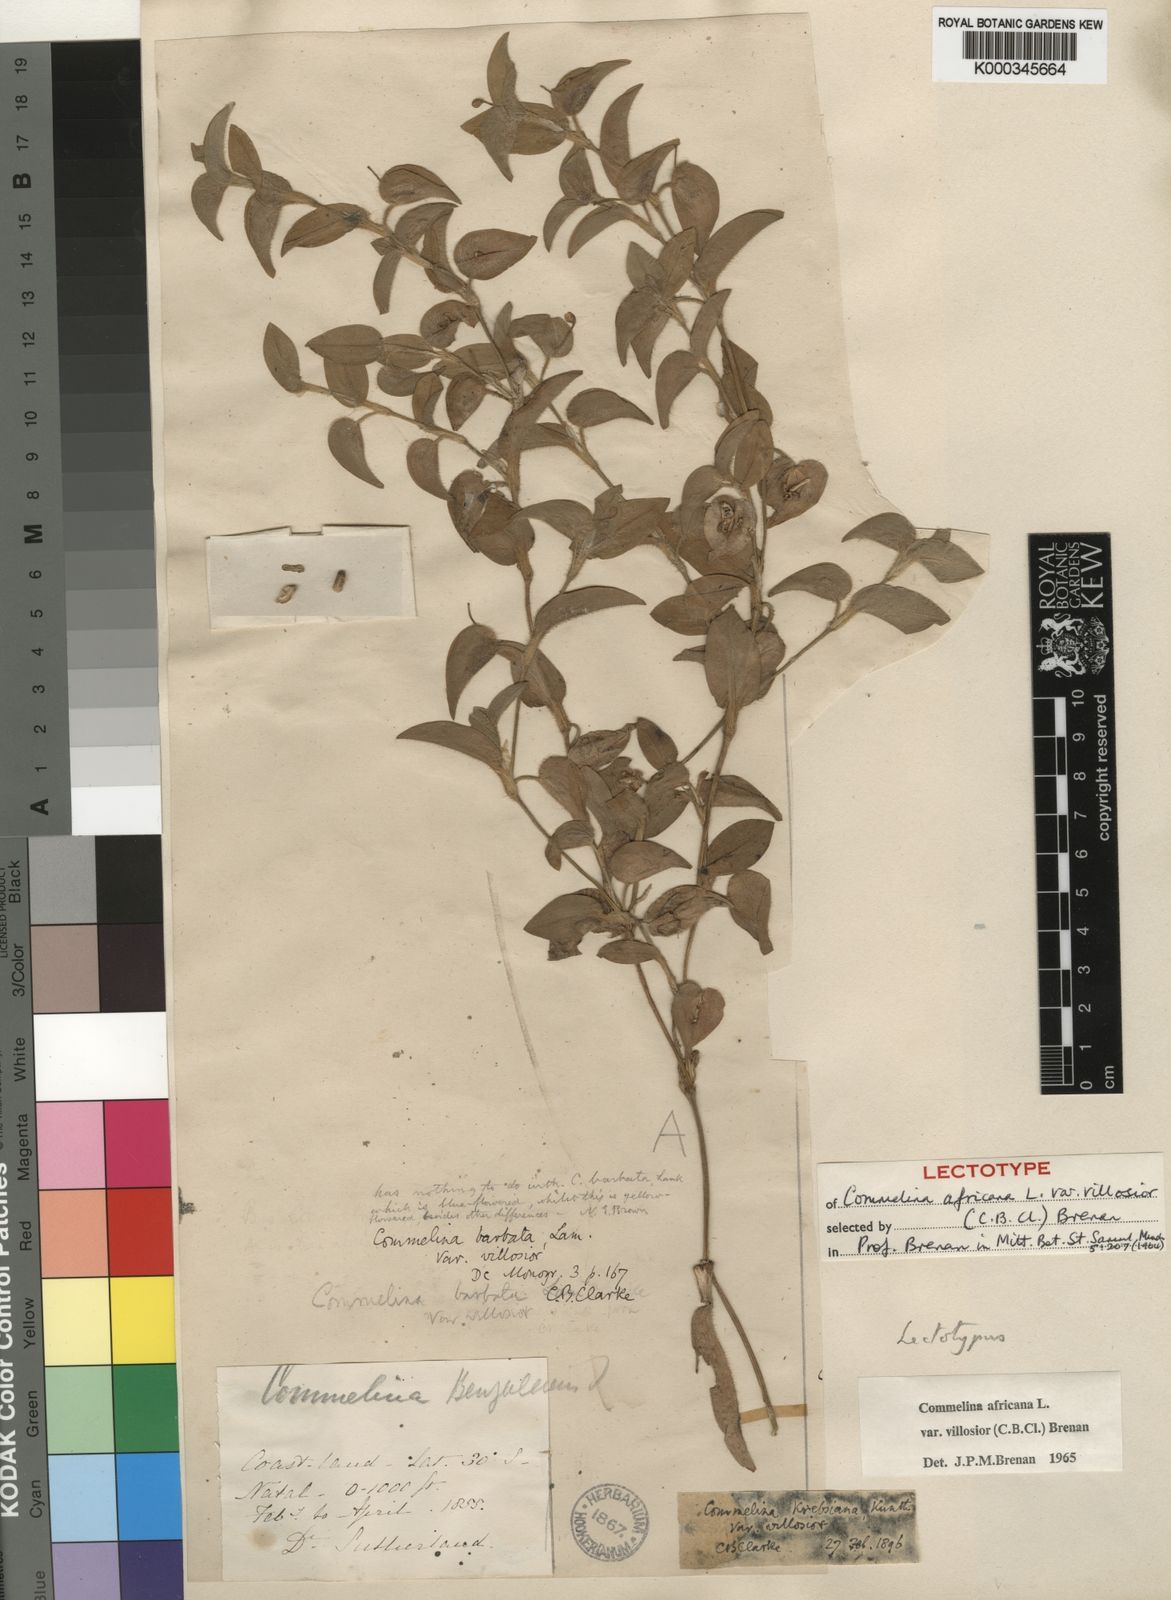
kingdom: Plantae
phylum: Tracheophyta
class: Liliopsida
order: Commelinales
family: Commelinaceae
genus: Commelina
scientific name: Commelina africana
